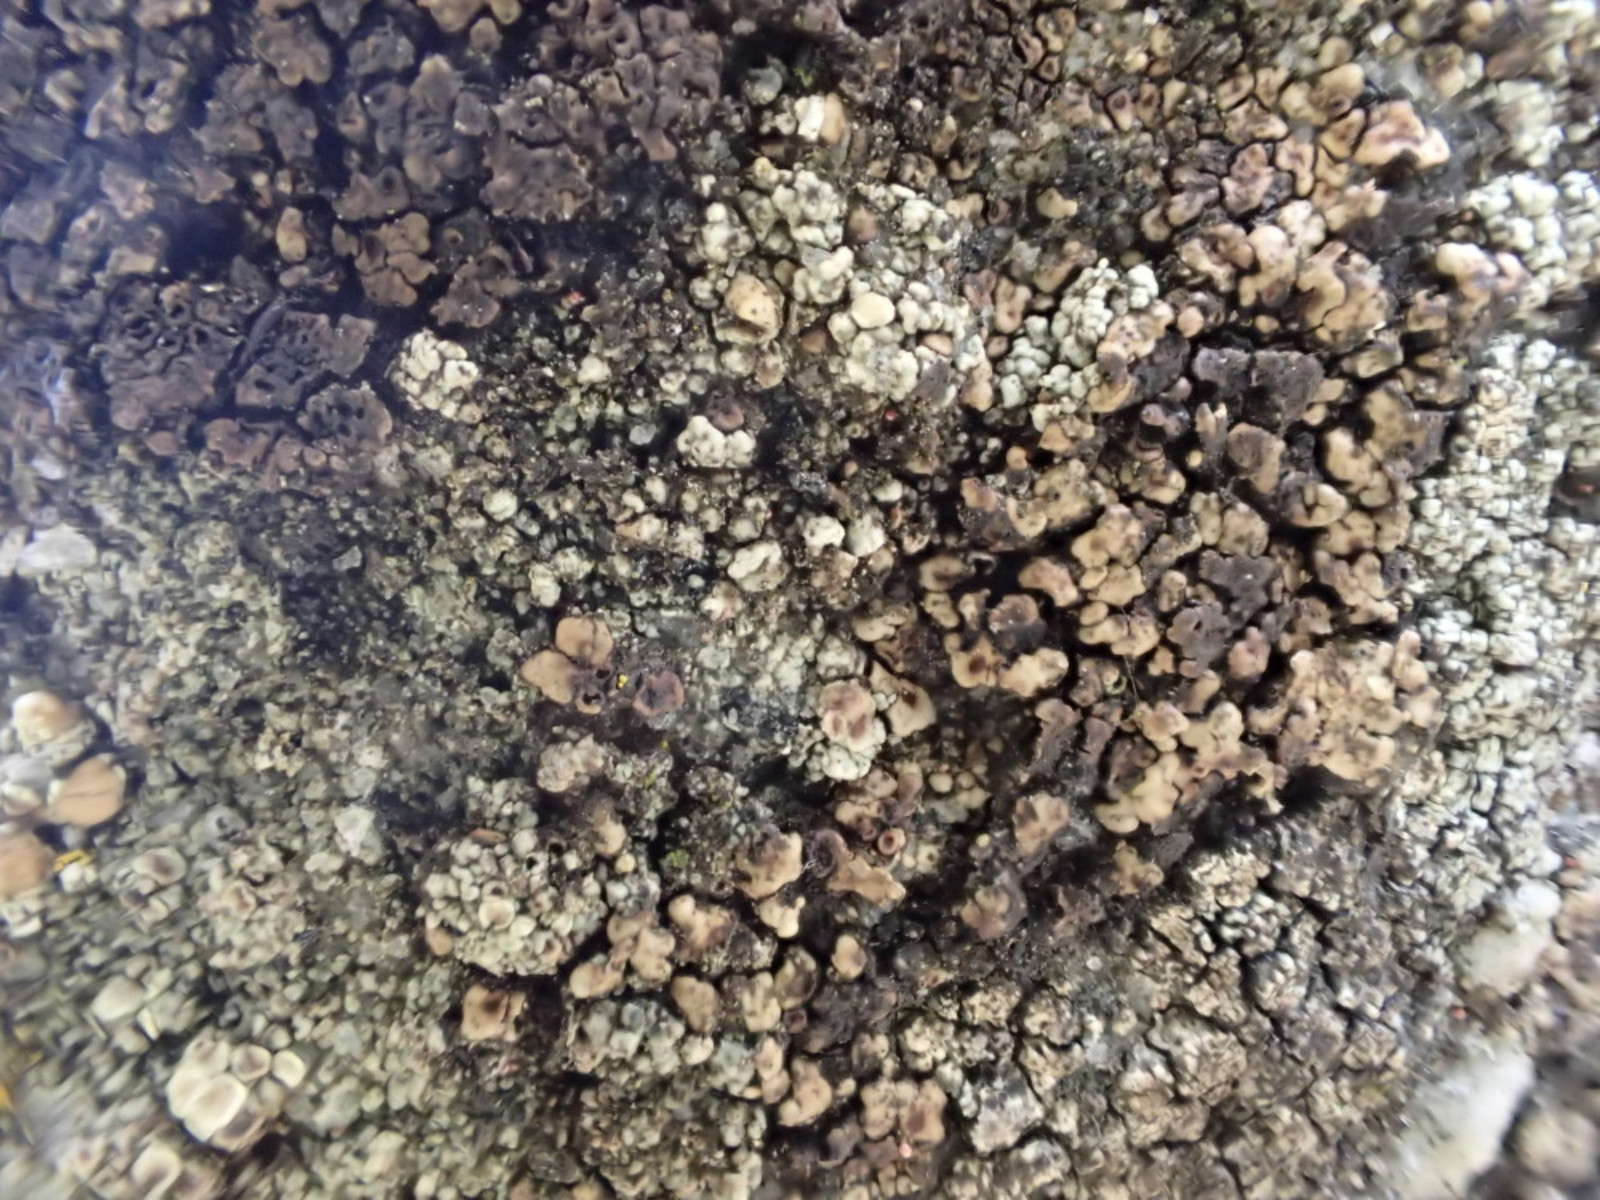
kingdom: Fungi
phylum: Ascomycota
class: Lecanoromycetes
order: Acarosporales
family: Acarosporaceae
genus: Acarospora
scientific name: Acarospora fuscata
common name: brun småsporelav
